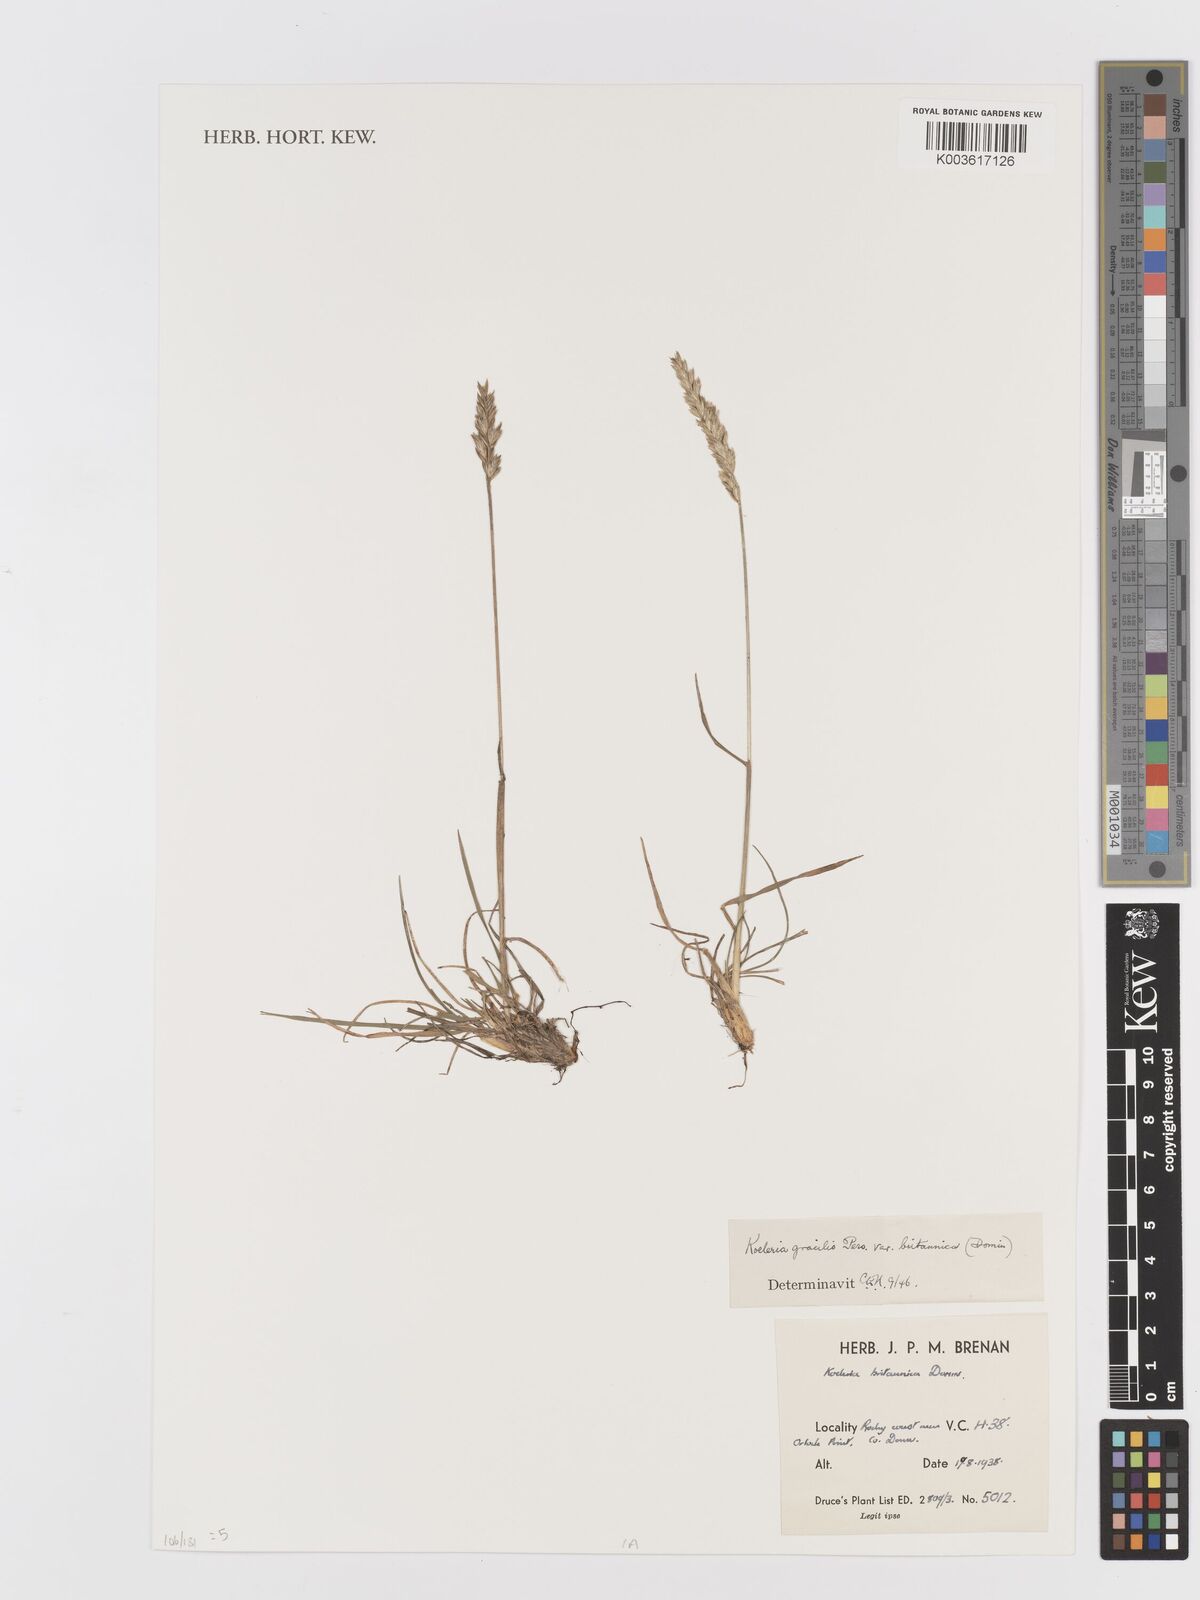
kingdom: Plantae
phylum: Tracheophyta
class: Liliopsida
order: Poales
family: Poaceae
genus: Koeleria
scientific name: Koeleria macrantha
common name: Crested hair-grass
